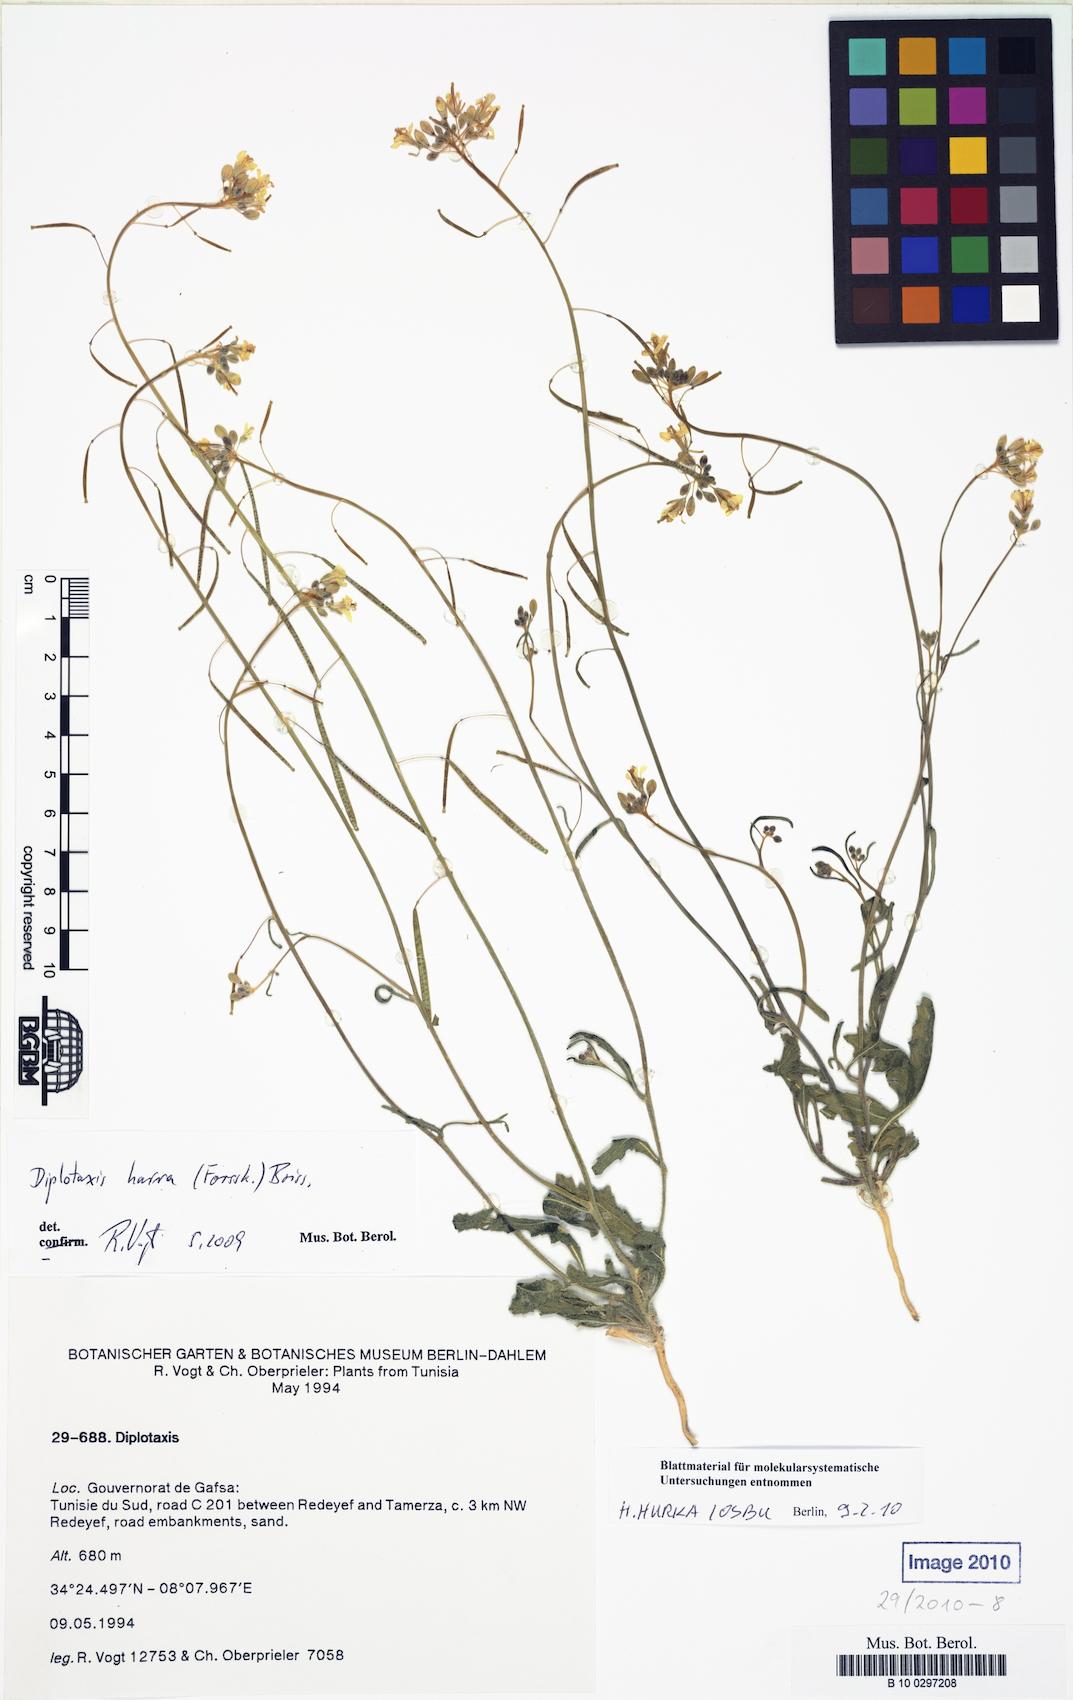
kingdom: Plantae
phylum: Tracheophyta
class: Magnoliopsida
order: Brassicales
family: Brassicaceae
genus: Diplotaxis
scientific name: Diplotaxis harra
